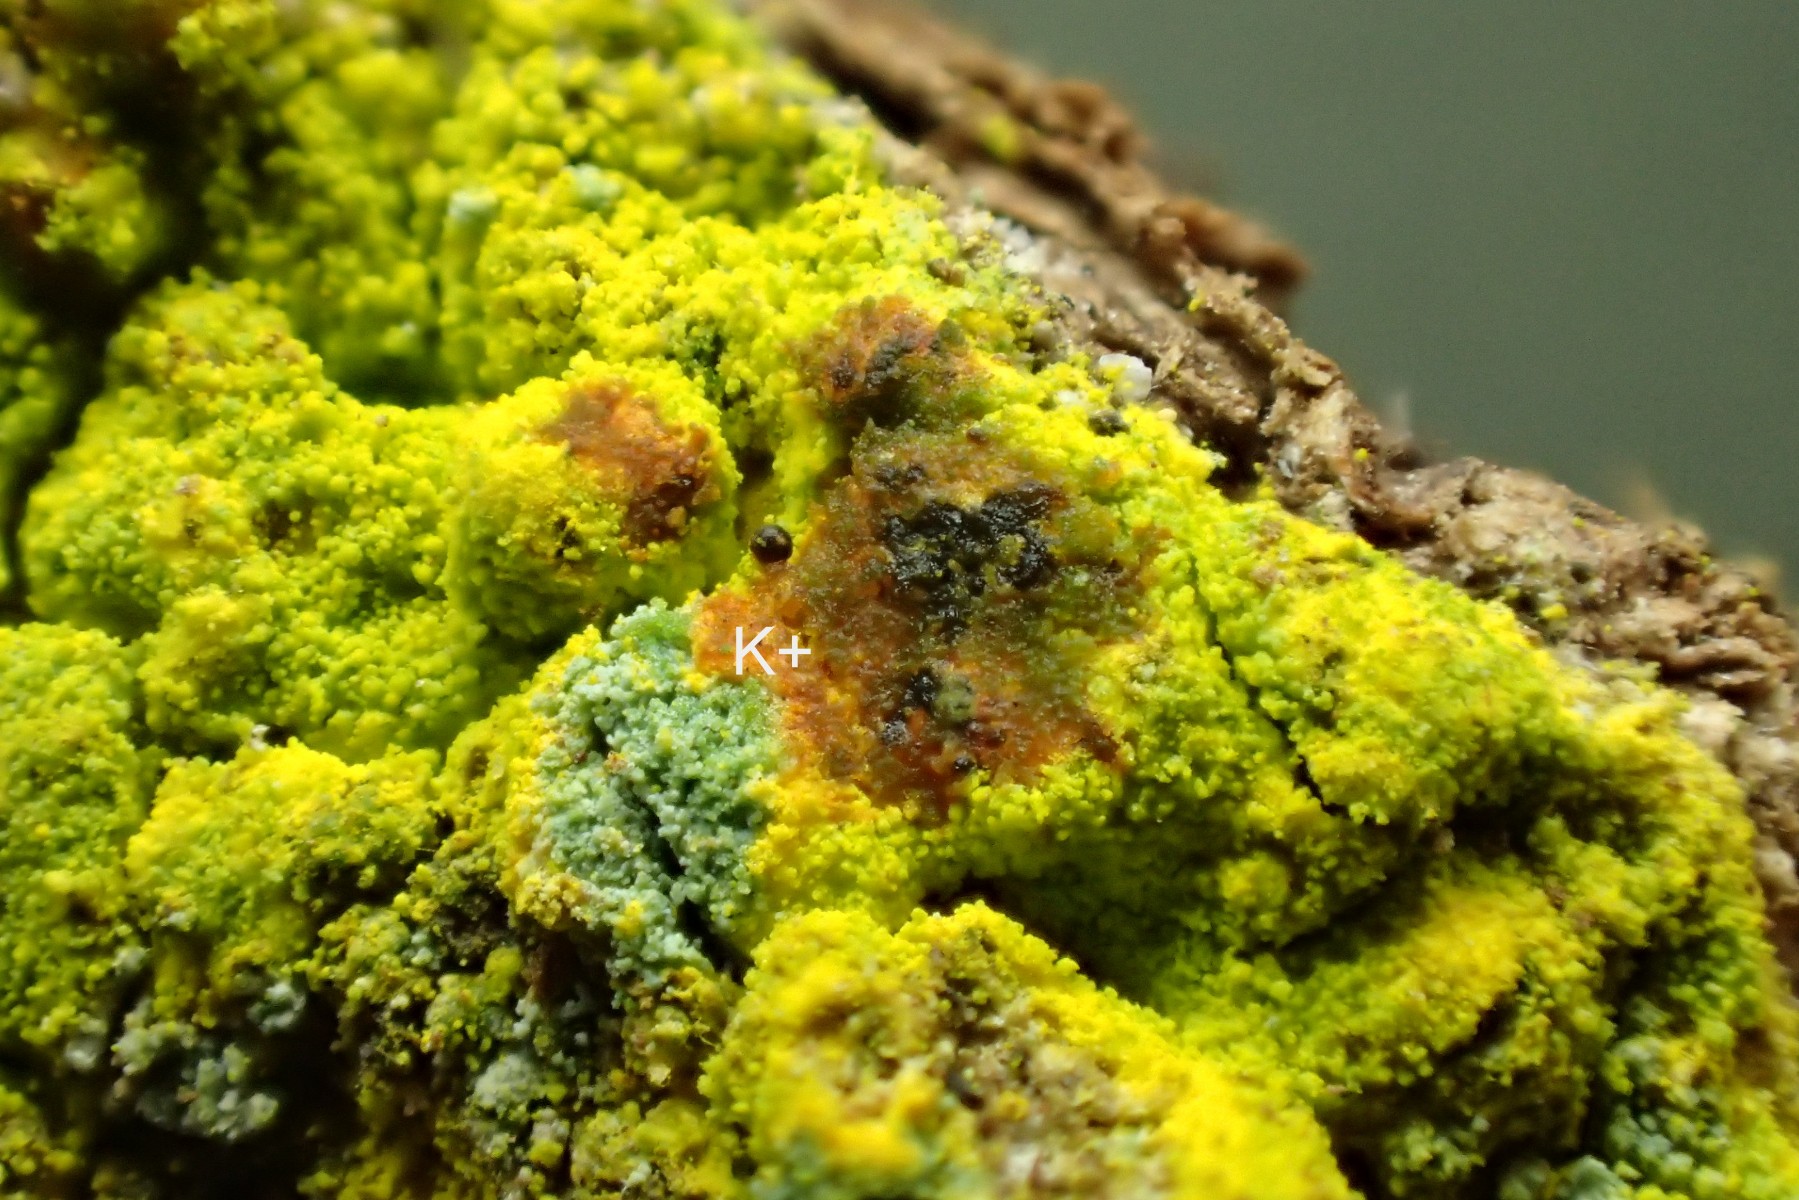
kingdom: Fungi
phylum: Ascomycota
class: Arthoniomycetes
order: Arthoniales
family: Chrysotrichaceae
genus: Chrysothrix
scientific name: Chrysothrix candelaris
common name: gul støvlav
